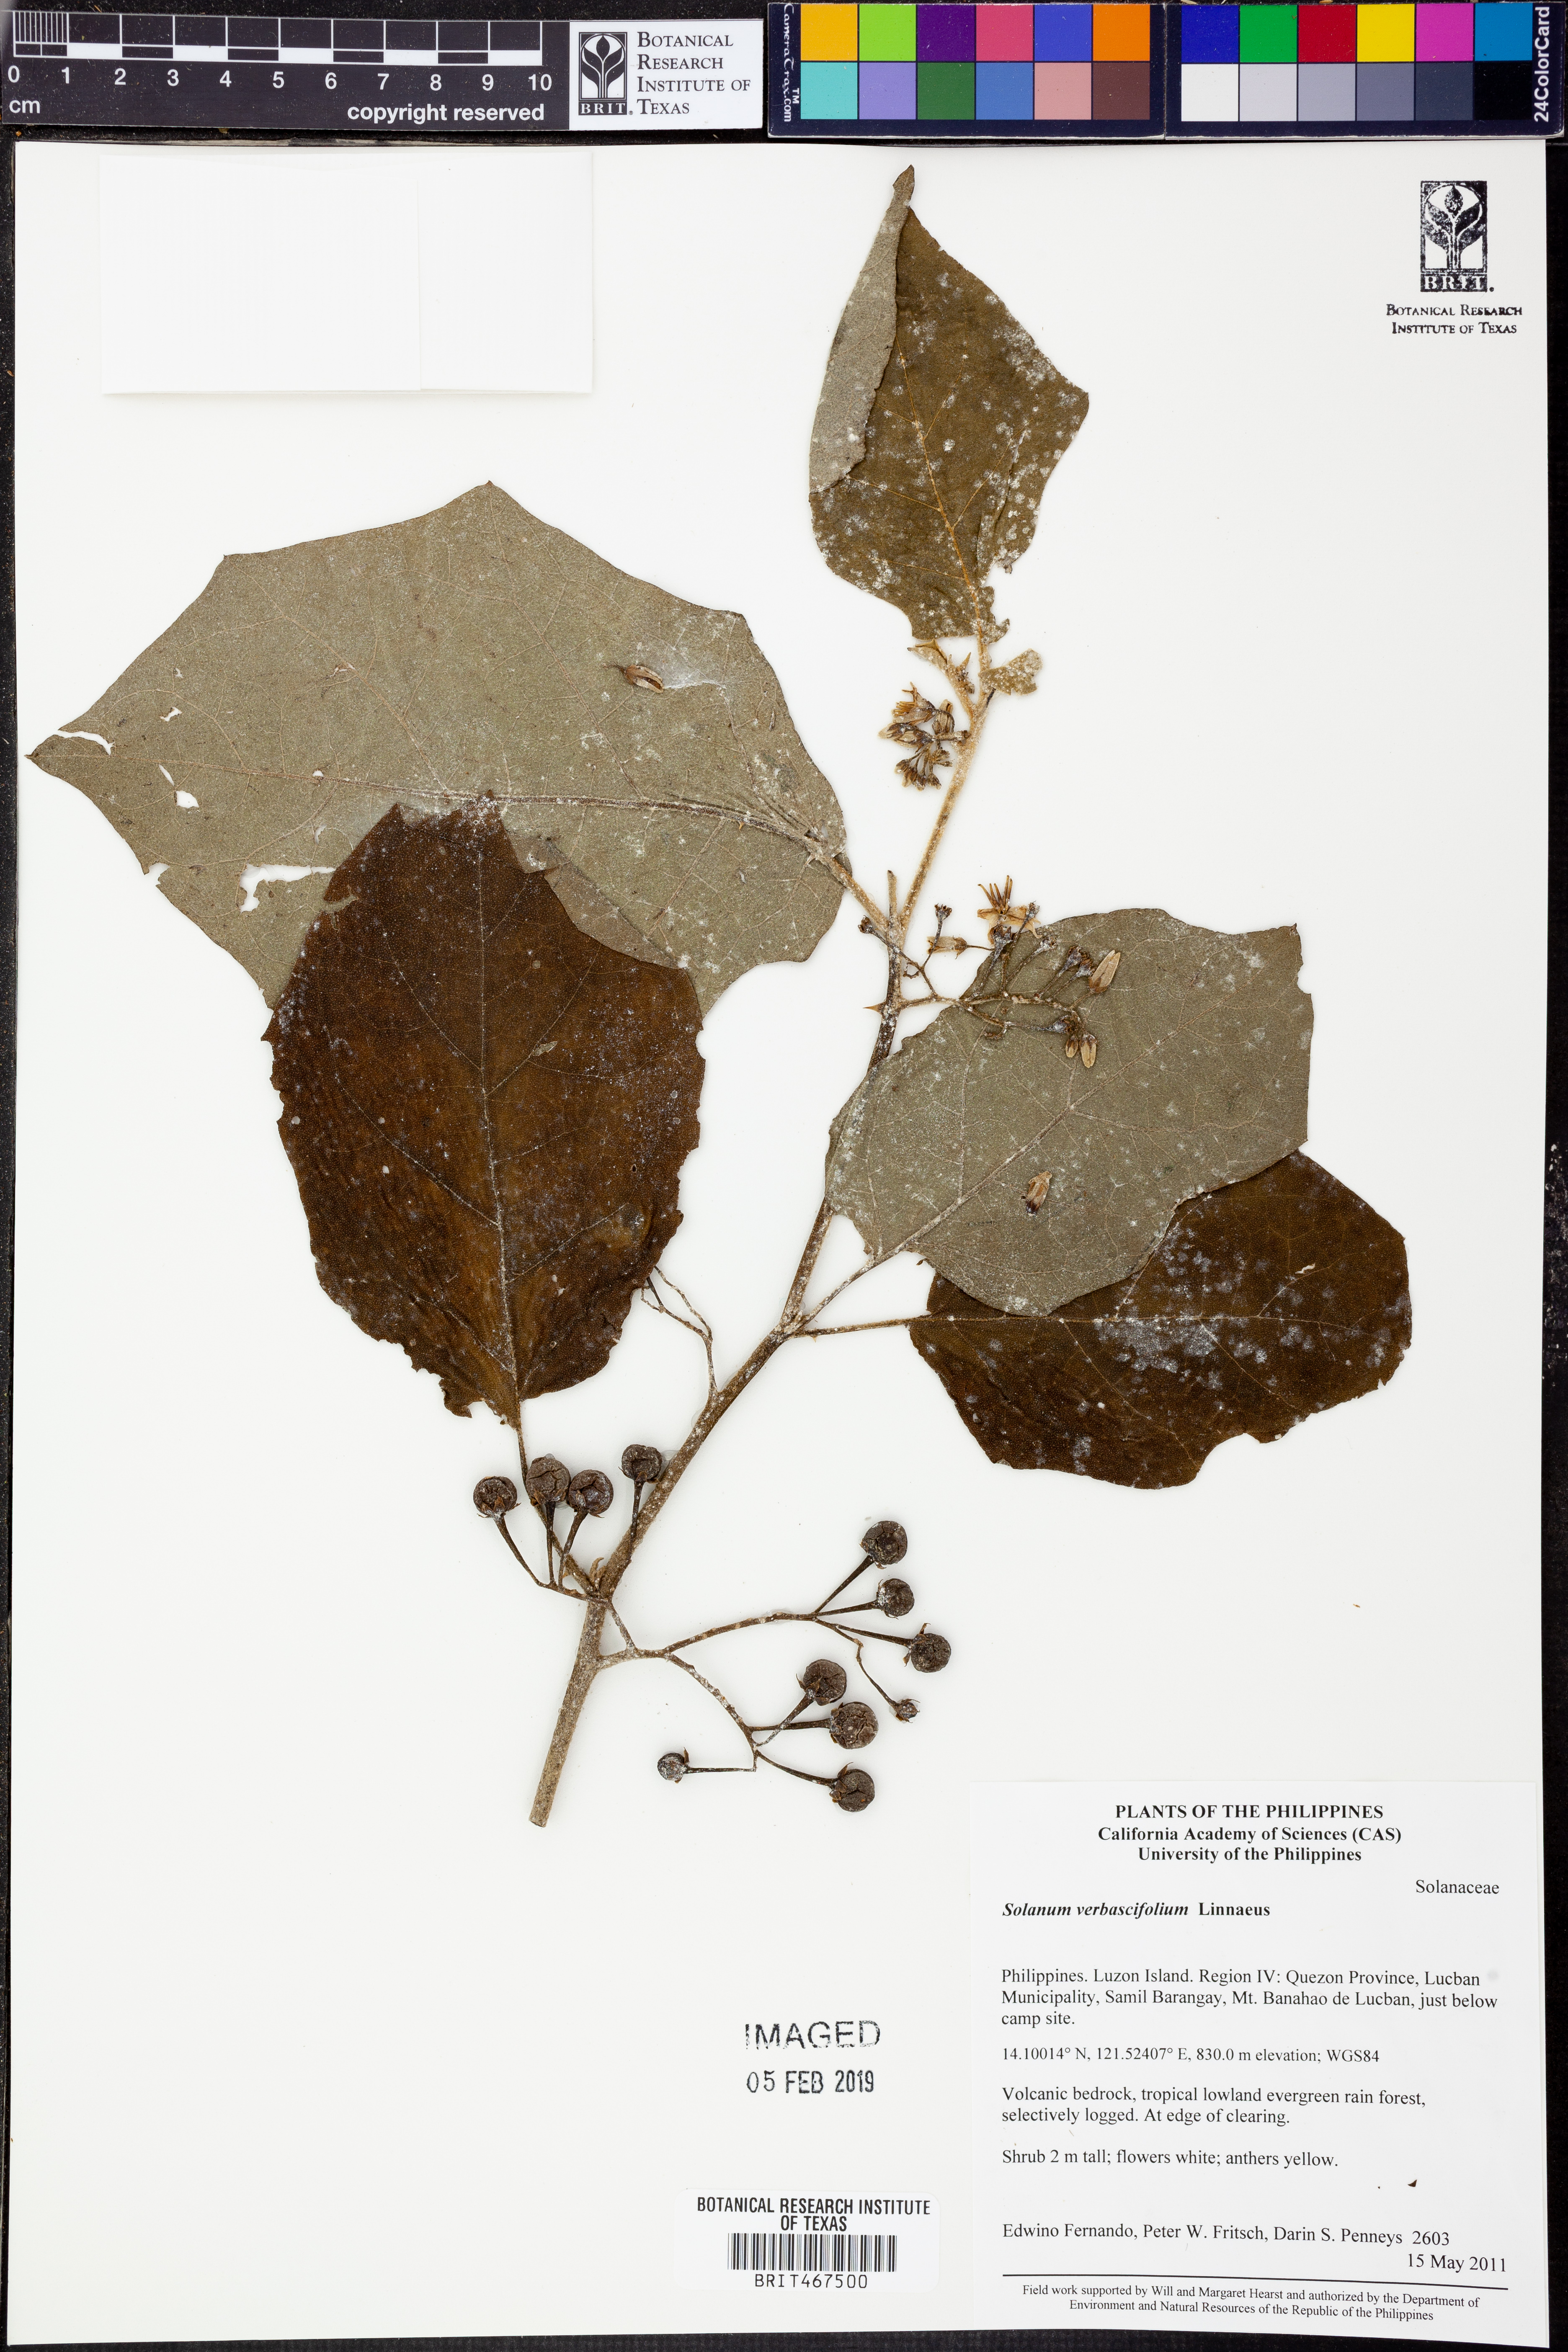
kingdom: Plantae
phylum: Tracheophyta
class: Magnoliopsida
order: Solanales
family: Solanaceae
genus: Solanum
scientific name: Solanum
